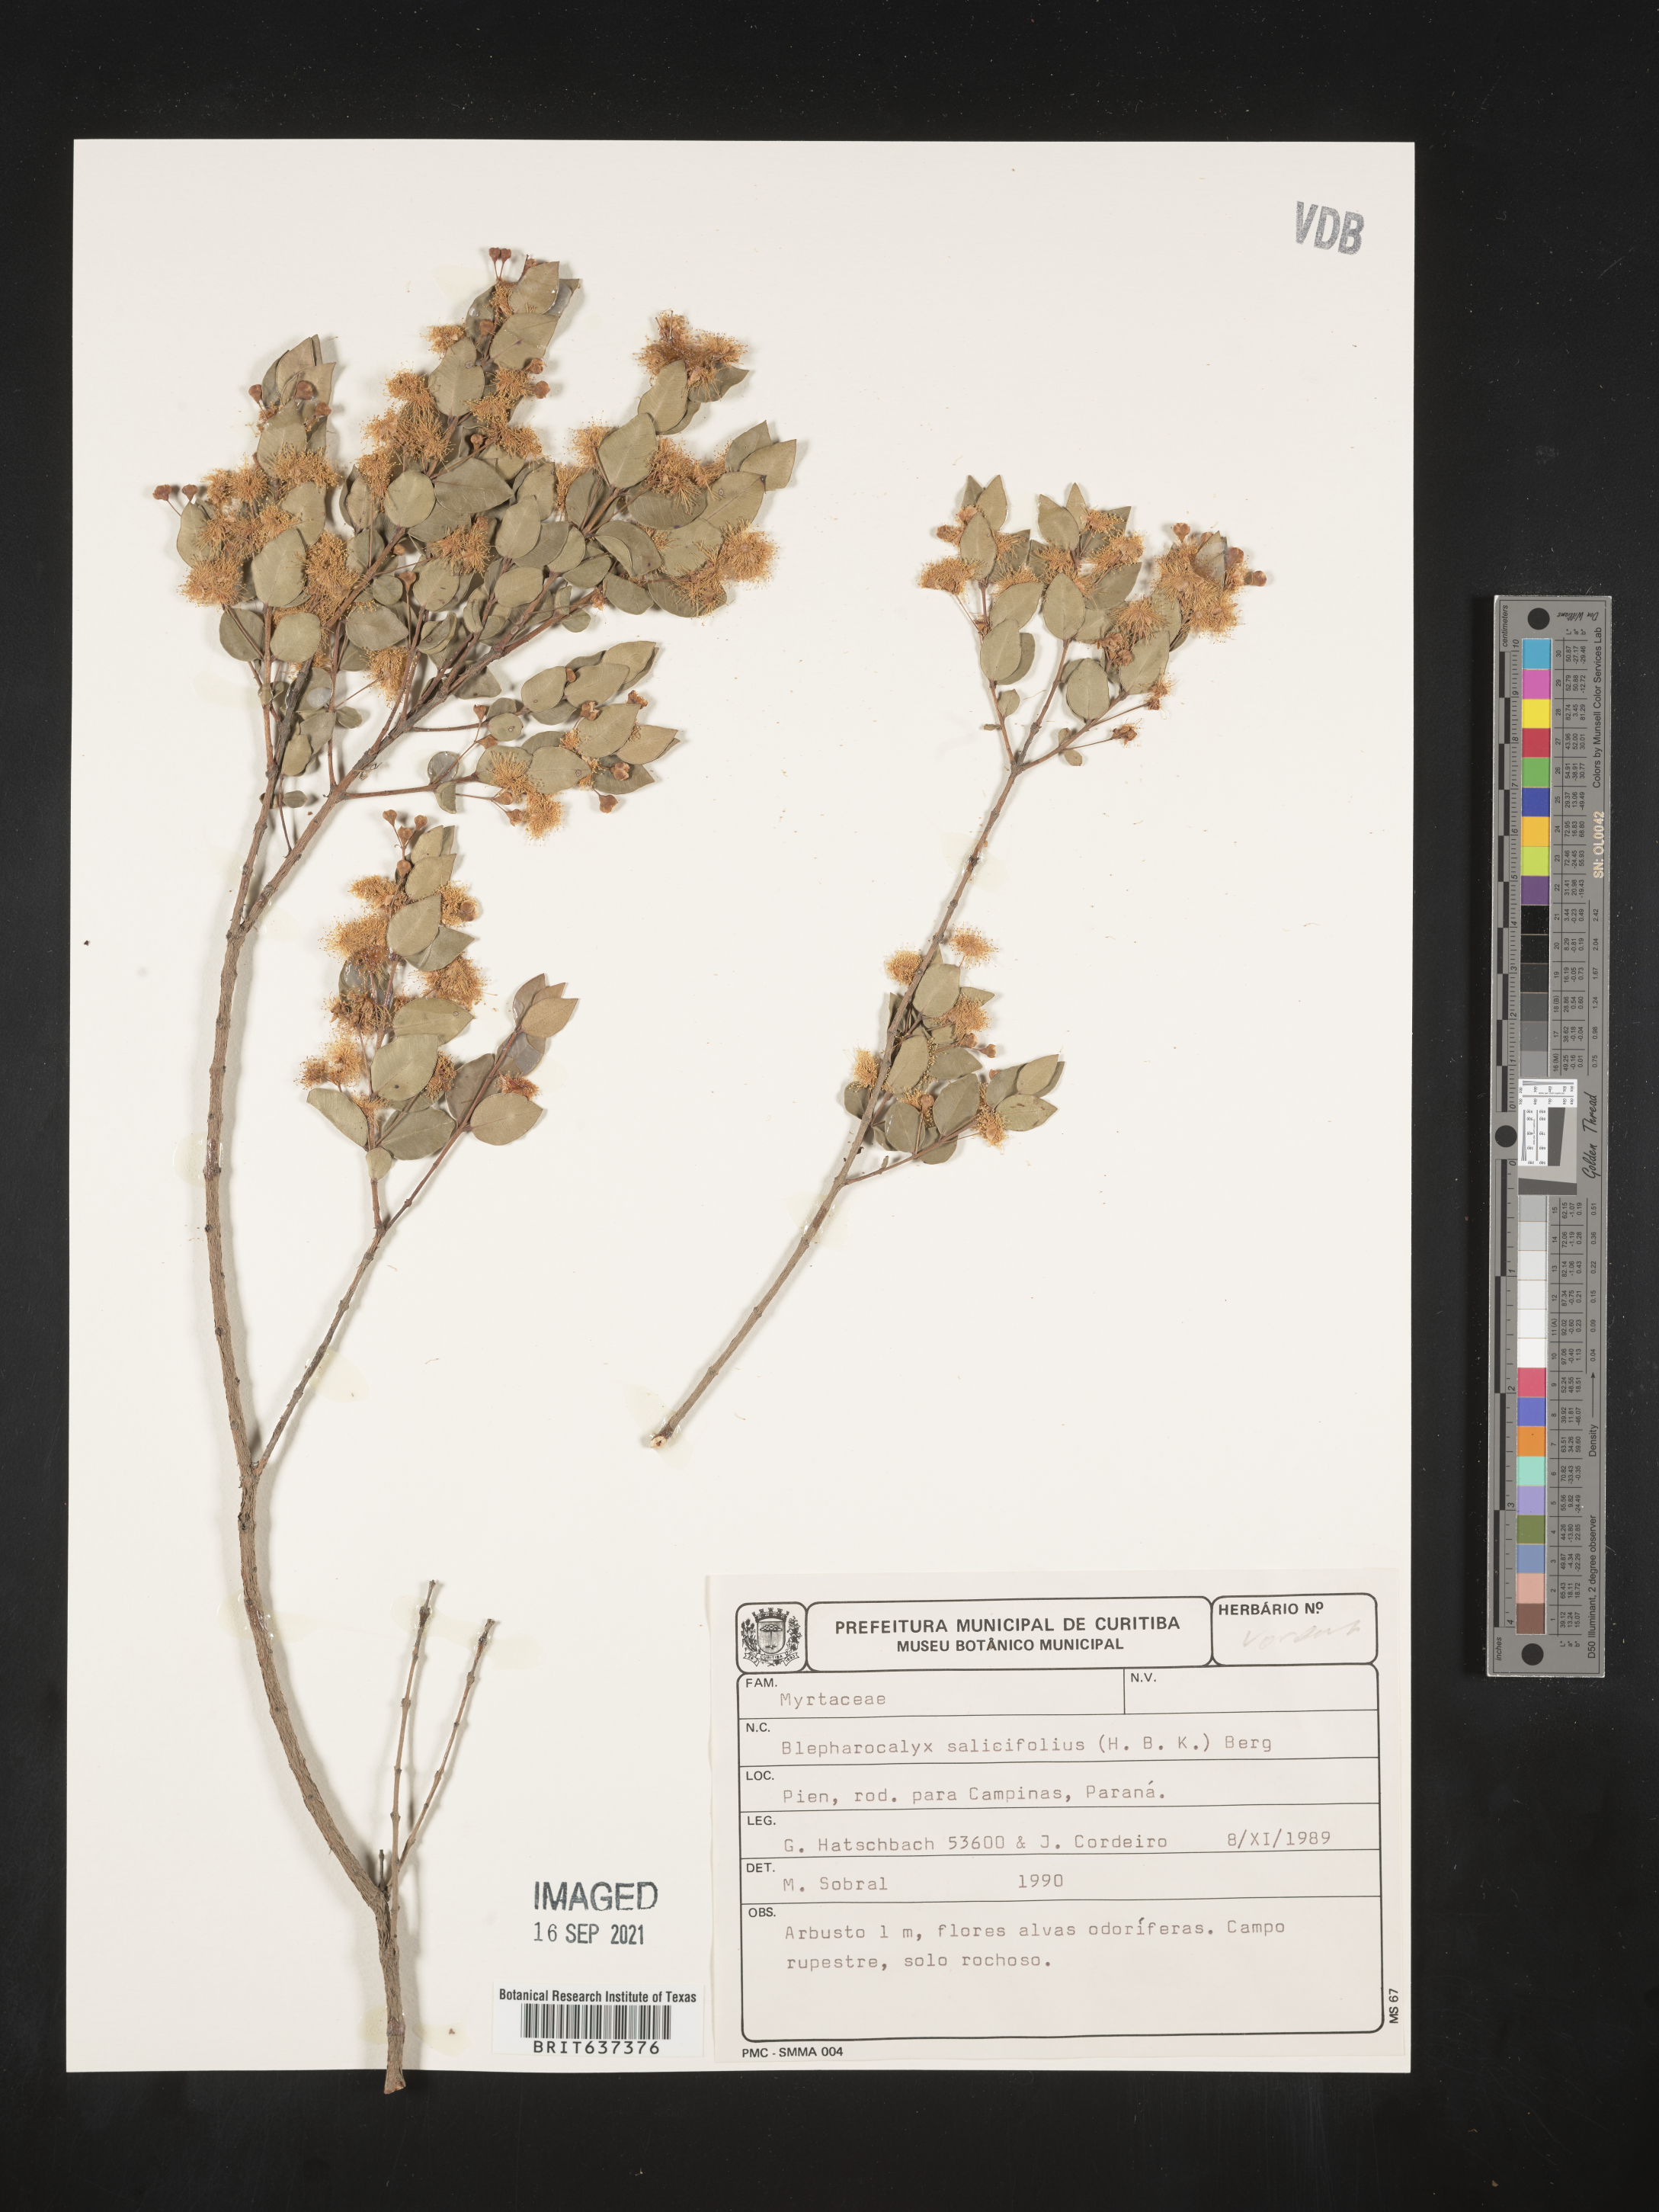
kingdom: Plantae
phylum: Tracheophyta
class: Magnoliopsida
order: Myrtales
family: Myrtaceae
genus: Blepharocalyx
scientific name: Blepharocalyx
